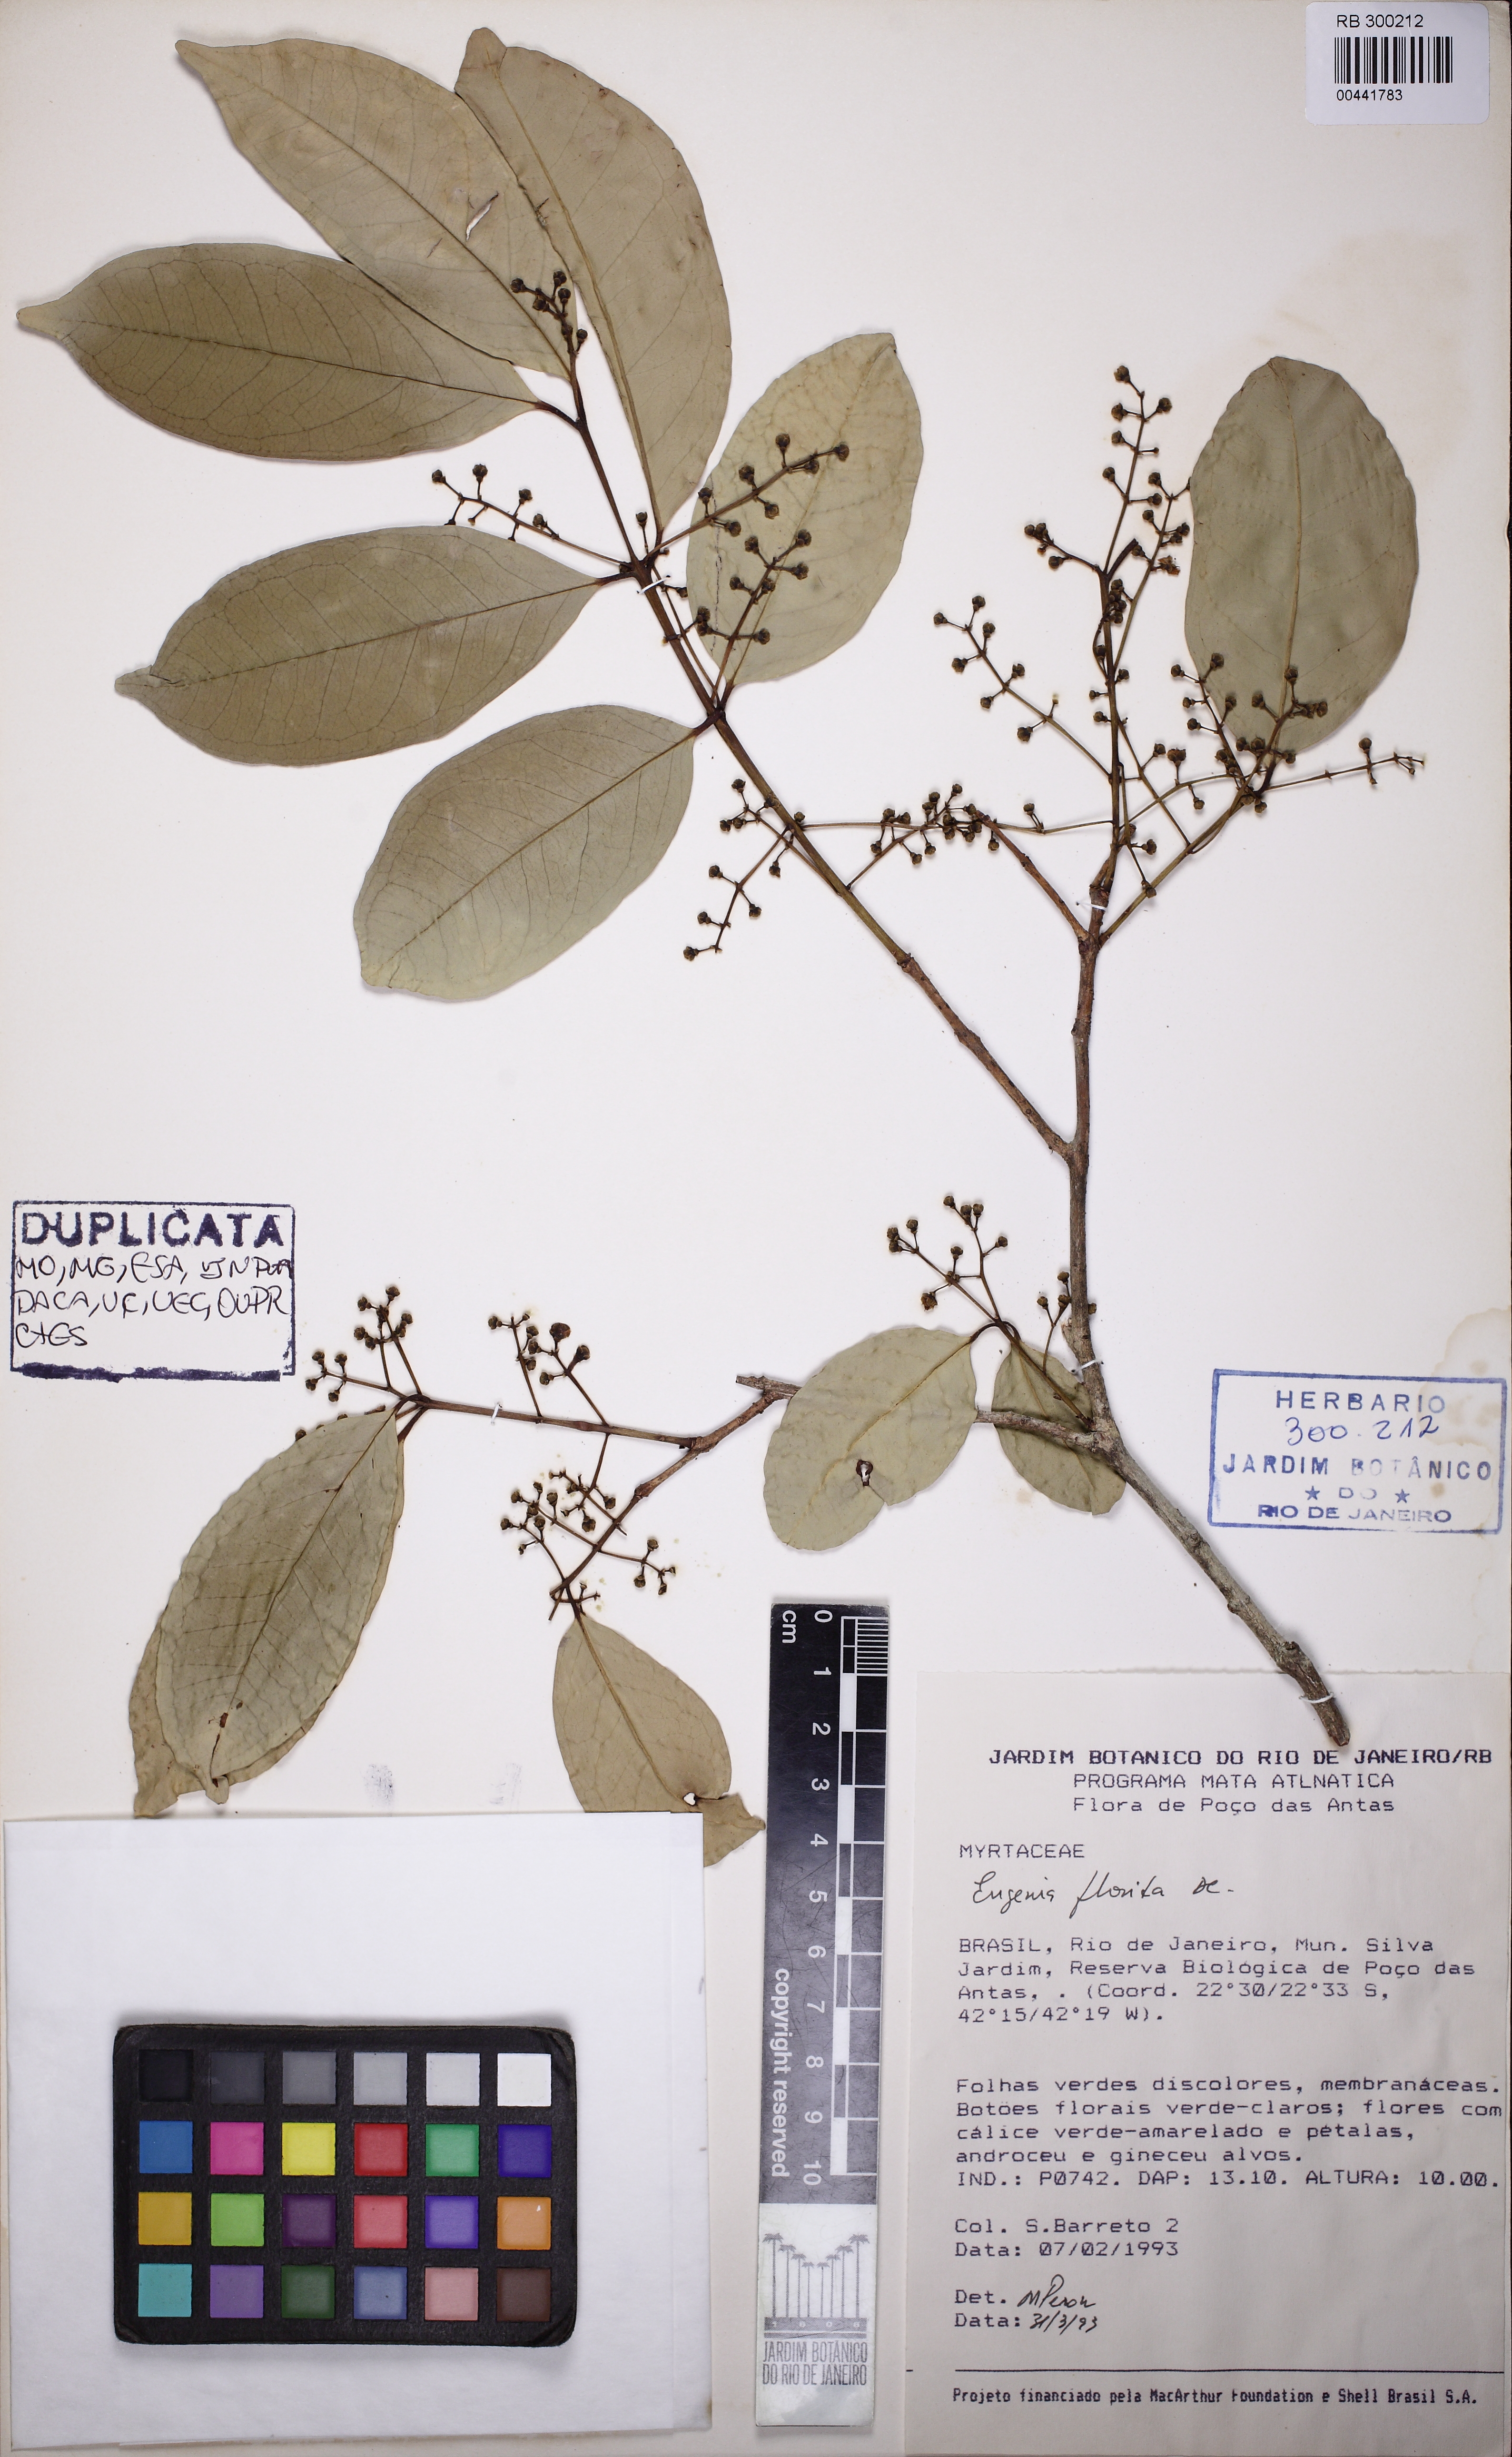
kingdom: Plantae
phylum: Tracheophyta
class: Magnoliopsida
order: Myrtales
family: Myrtaceae
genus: Eugenia
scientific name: Eugenia florida
